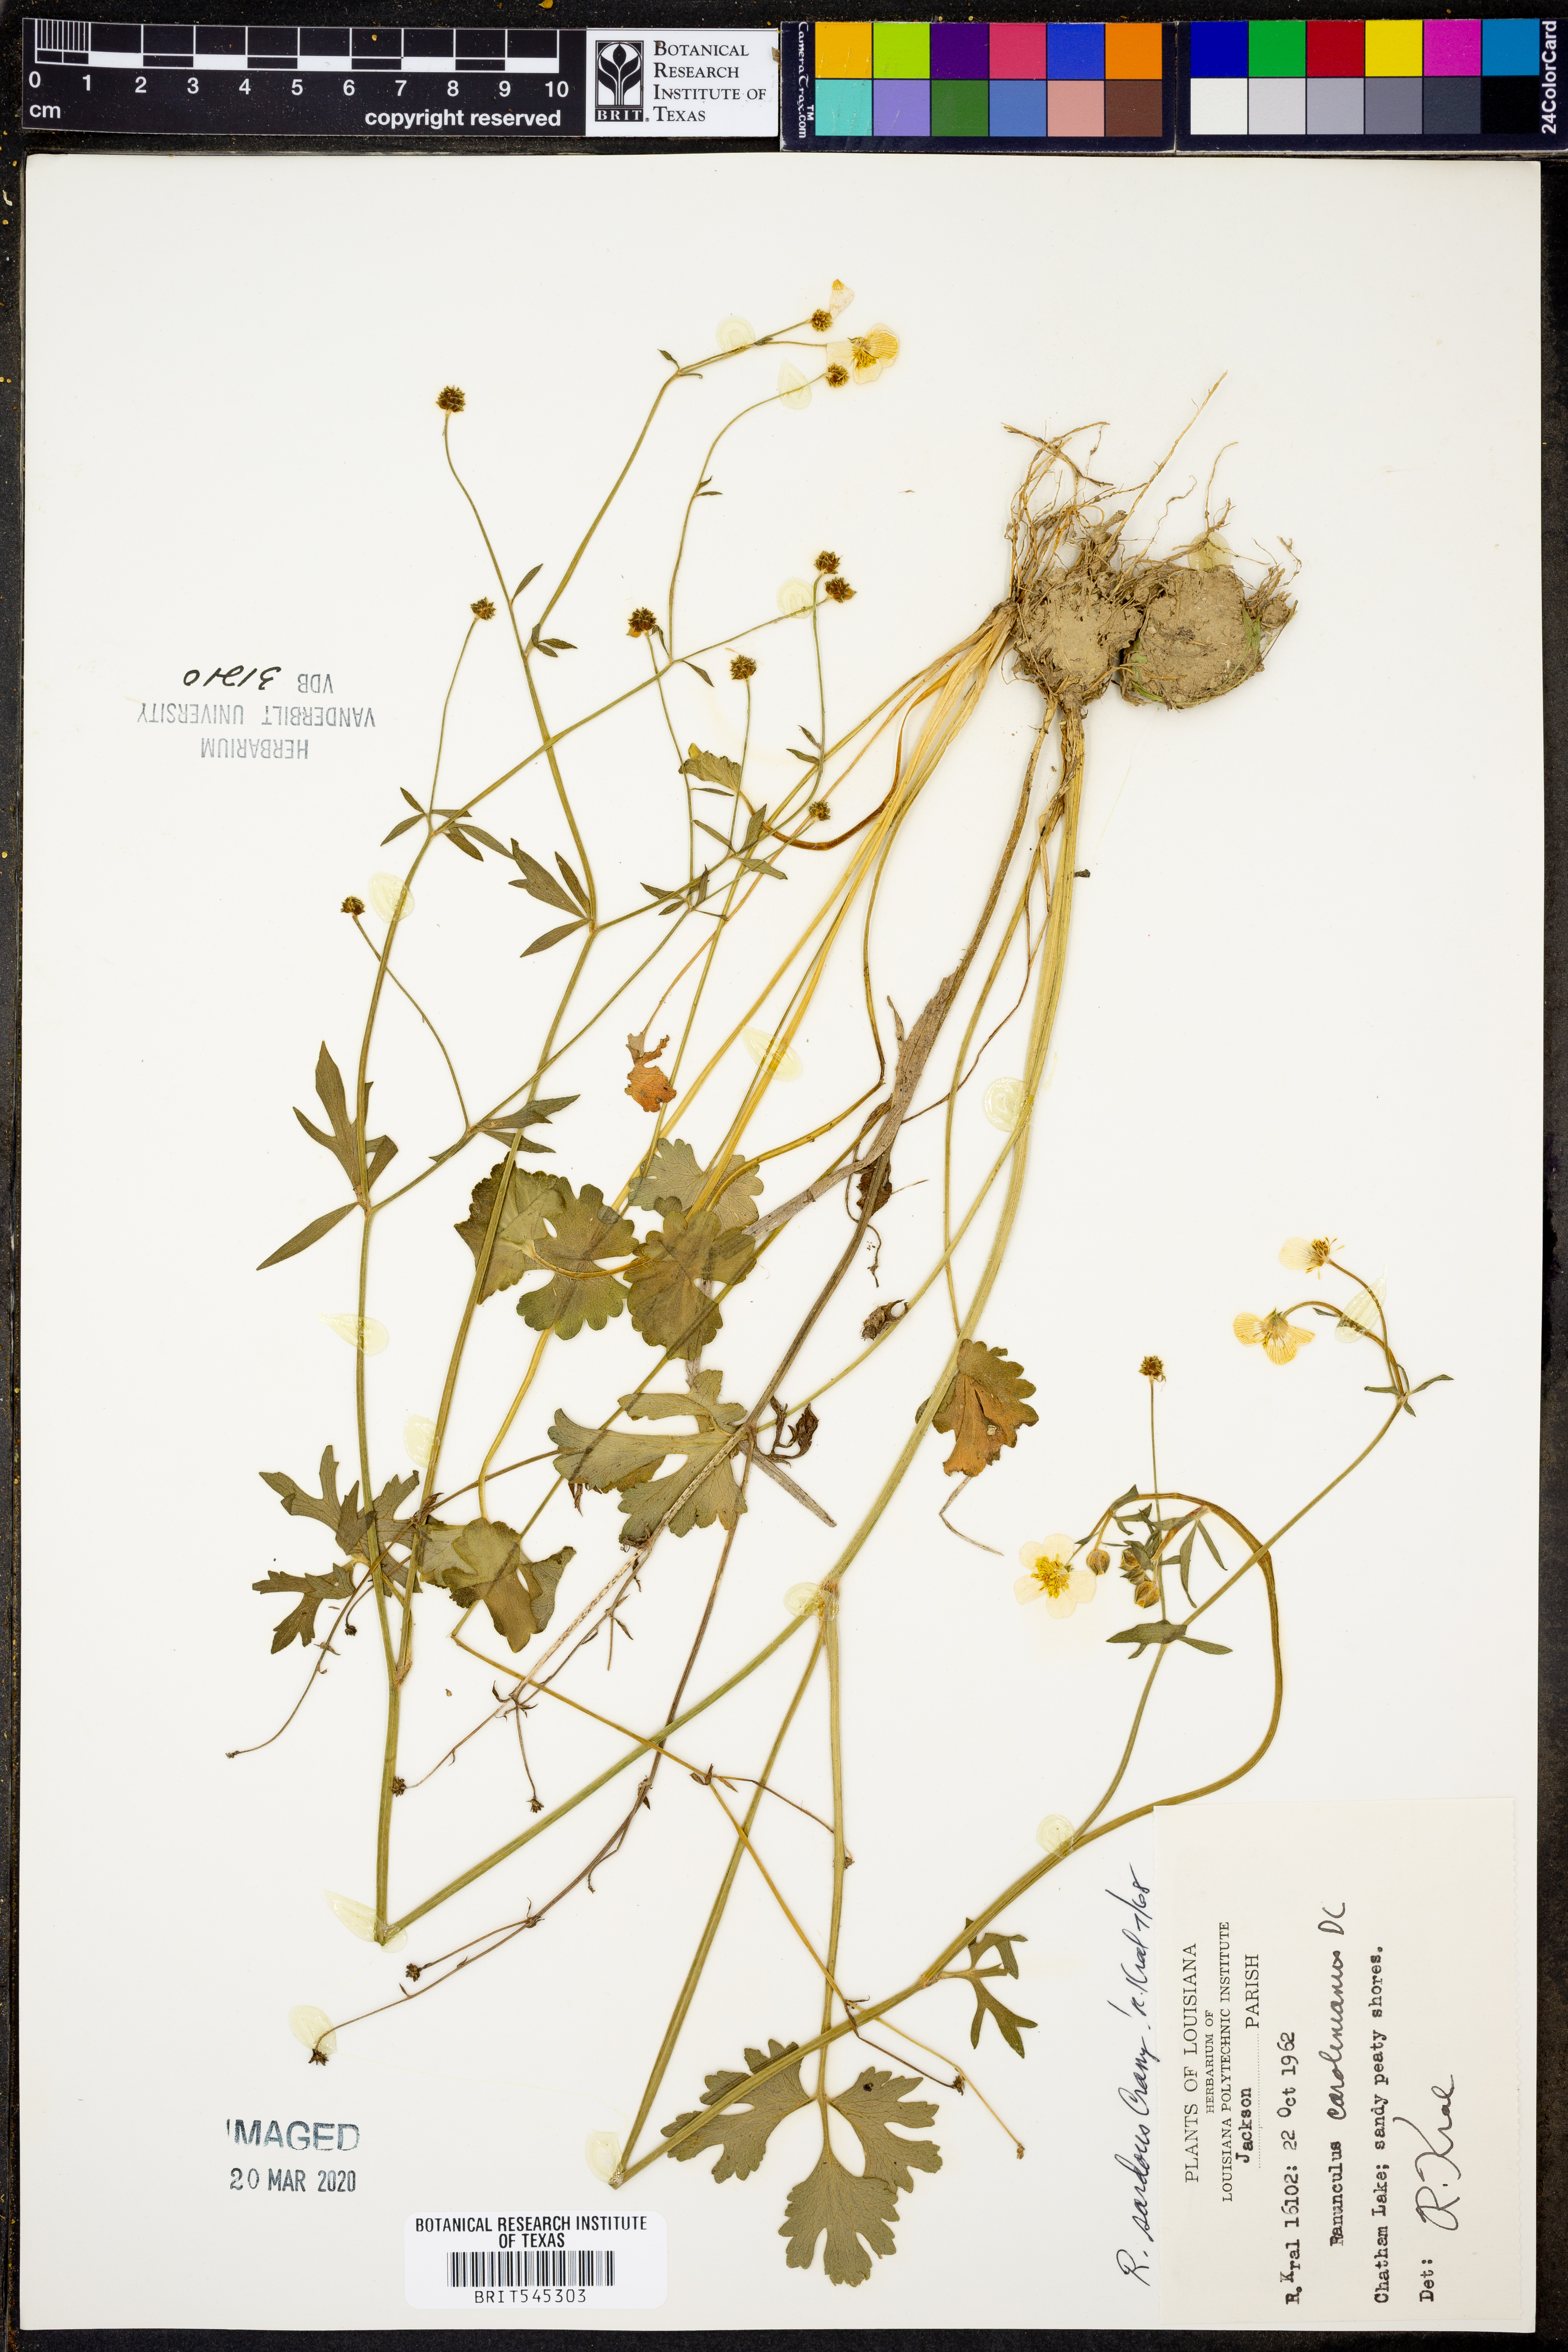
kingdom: Plantae
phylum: Tracheophyta
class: Magnoliopsida
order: Ranunculales
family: Ranunculaceae
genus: Ranunculus
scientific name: Ranunculus sardous
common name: Hairy buttercup
